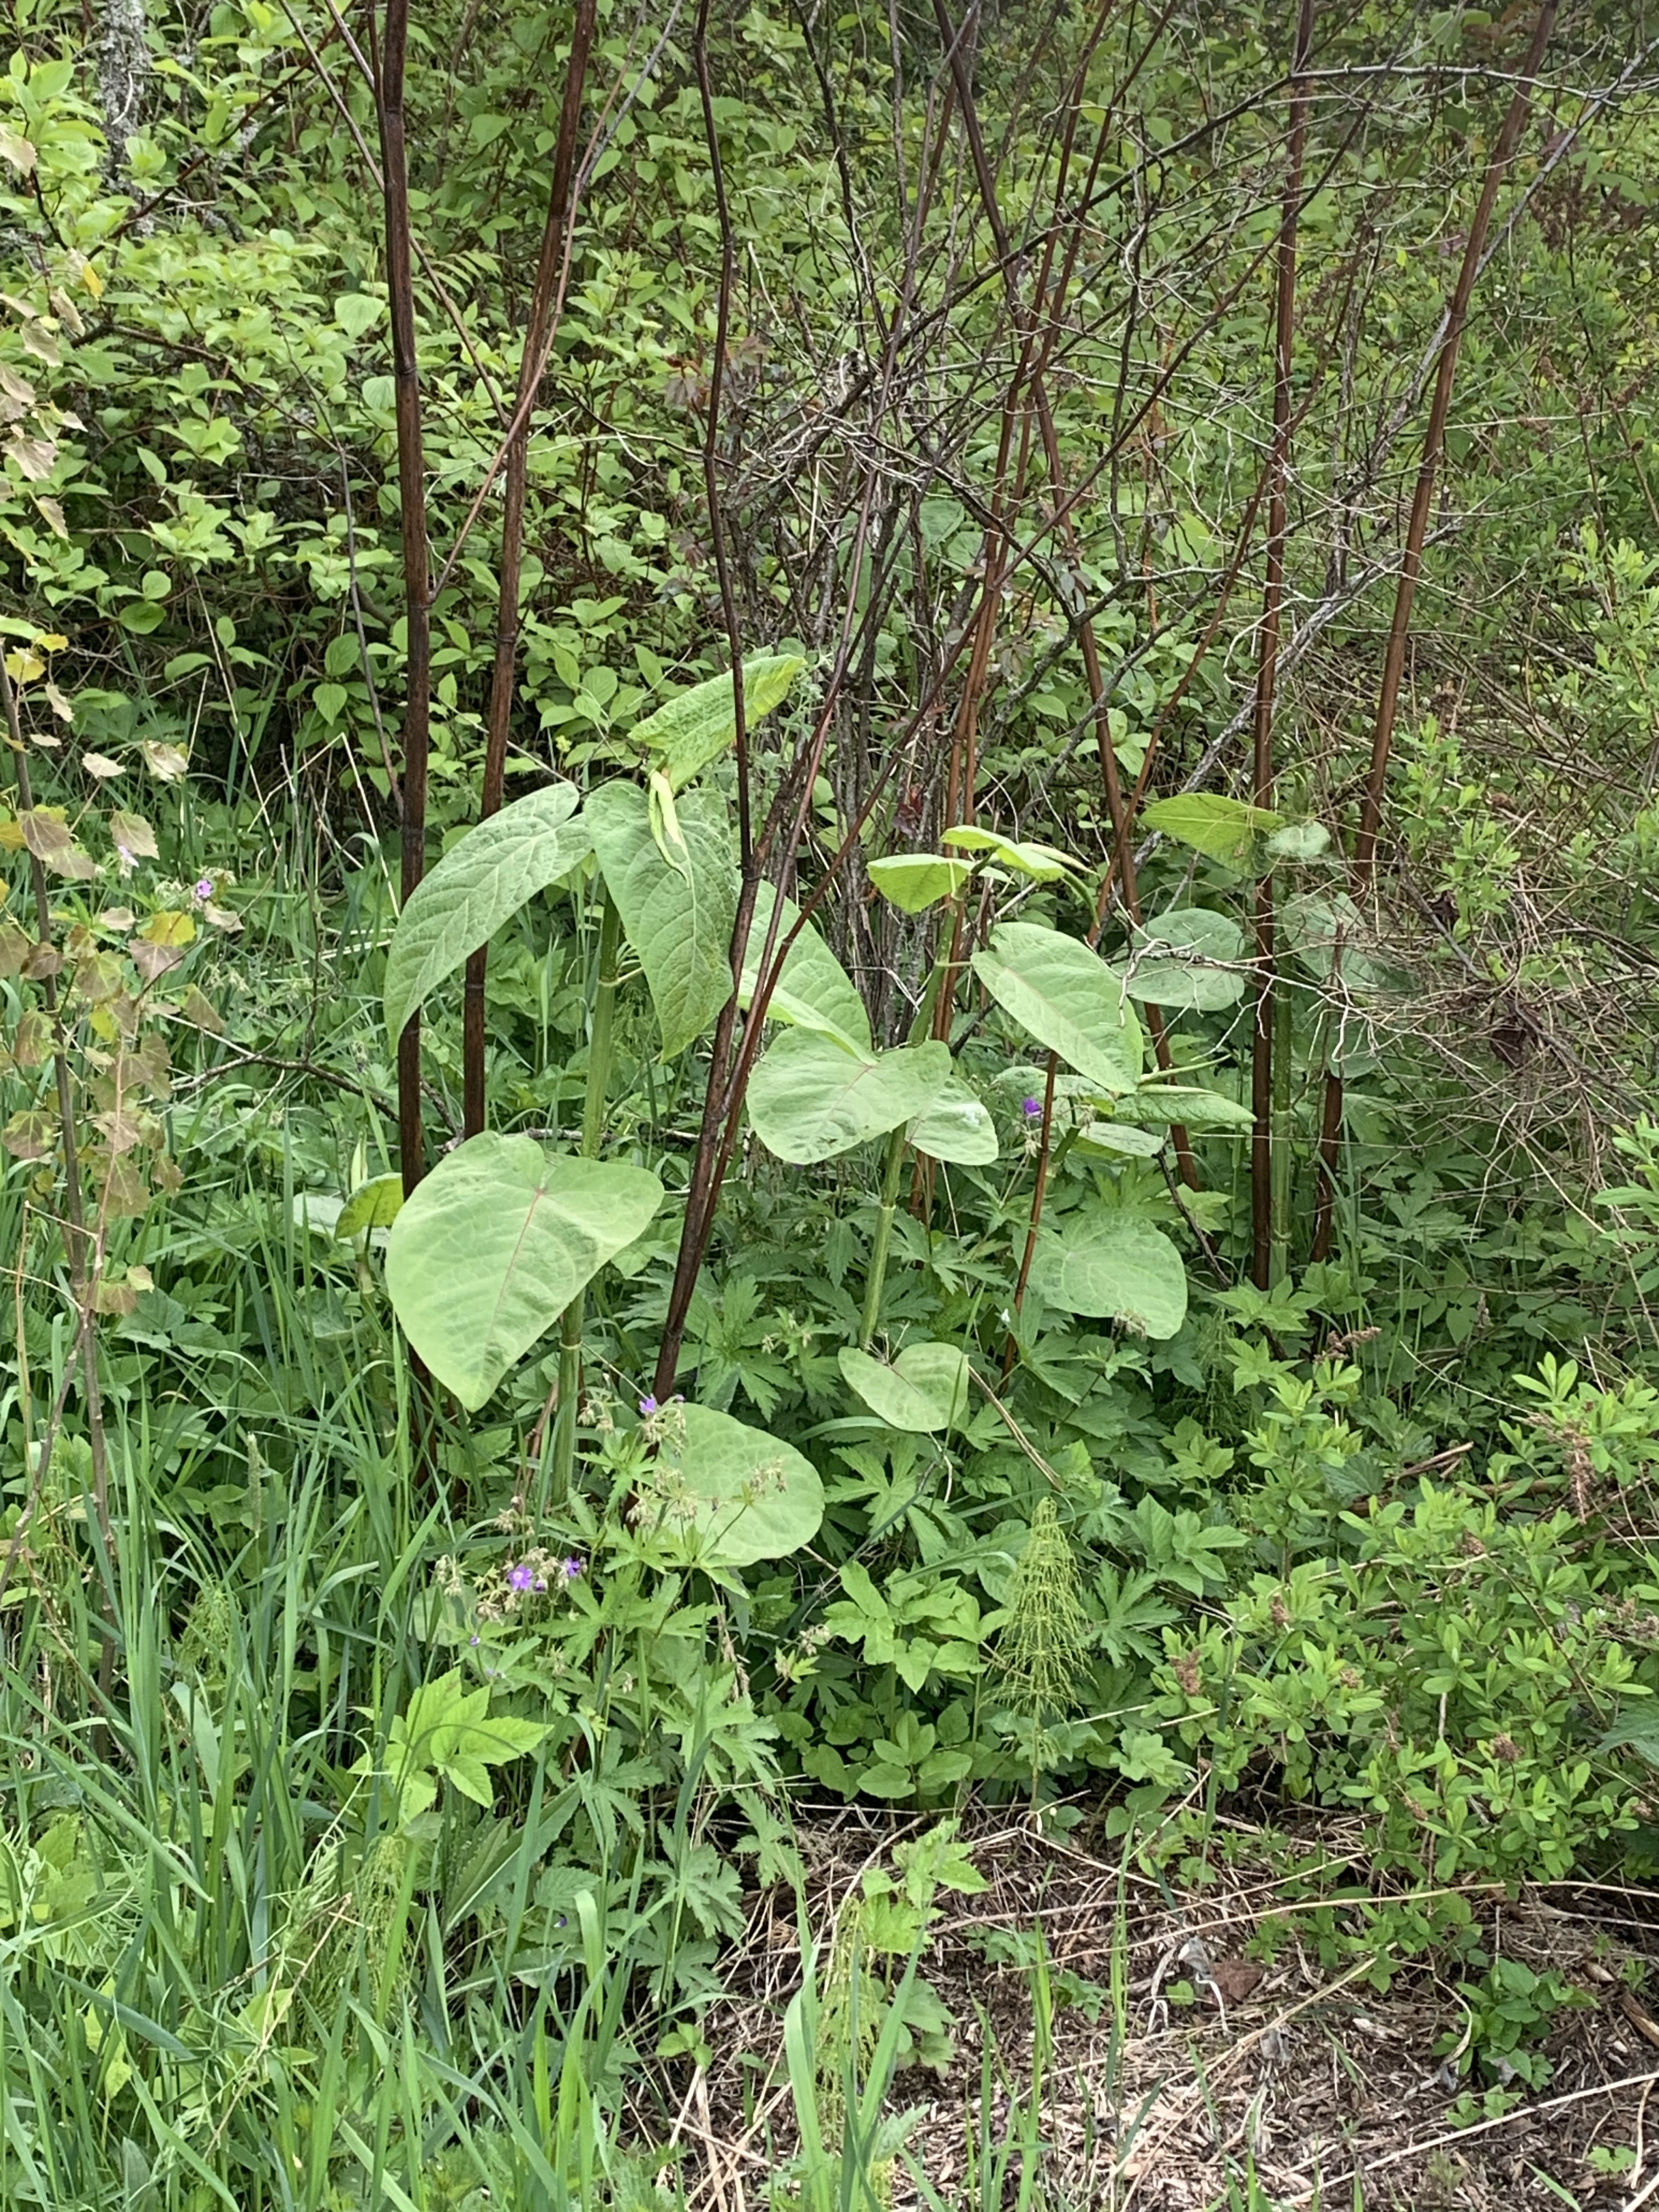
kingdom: Plantae
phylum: Tracheophyta
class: Magnoliopsida
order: Caryophyllales
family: Polygonaceae
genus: Reynoutria
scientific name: Reynoutria japonica
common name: Japanese knotweed
